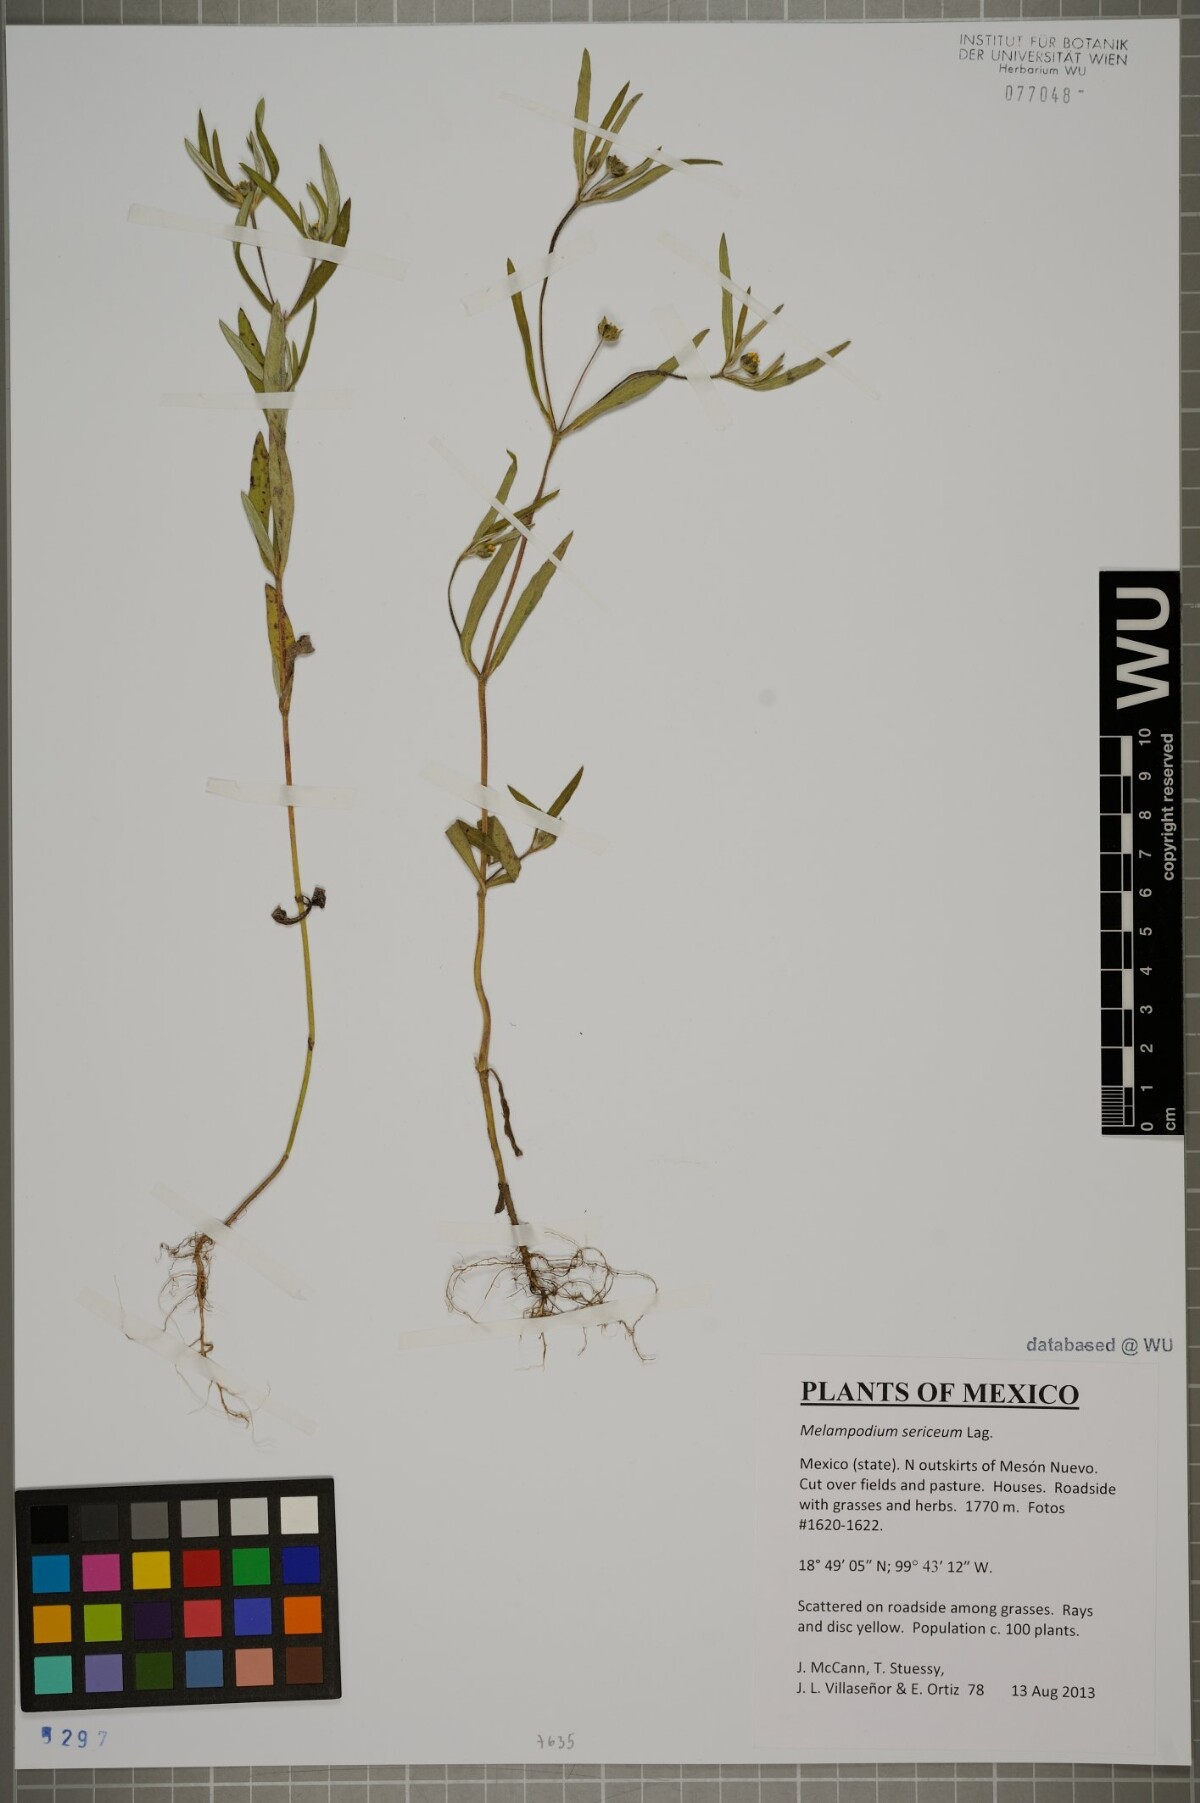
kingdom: Plantae
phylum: Tracheophyta
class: Magnoliopsida
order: Asterales
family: Asteraceae
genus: Melampodium
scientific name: Melampodium sericeum
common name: Rough blackfoot
